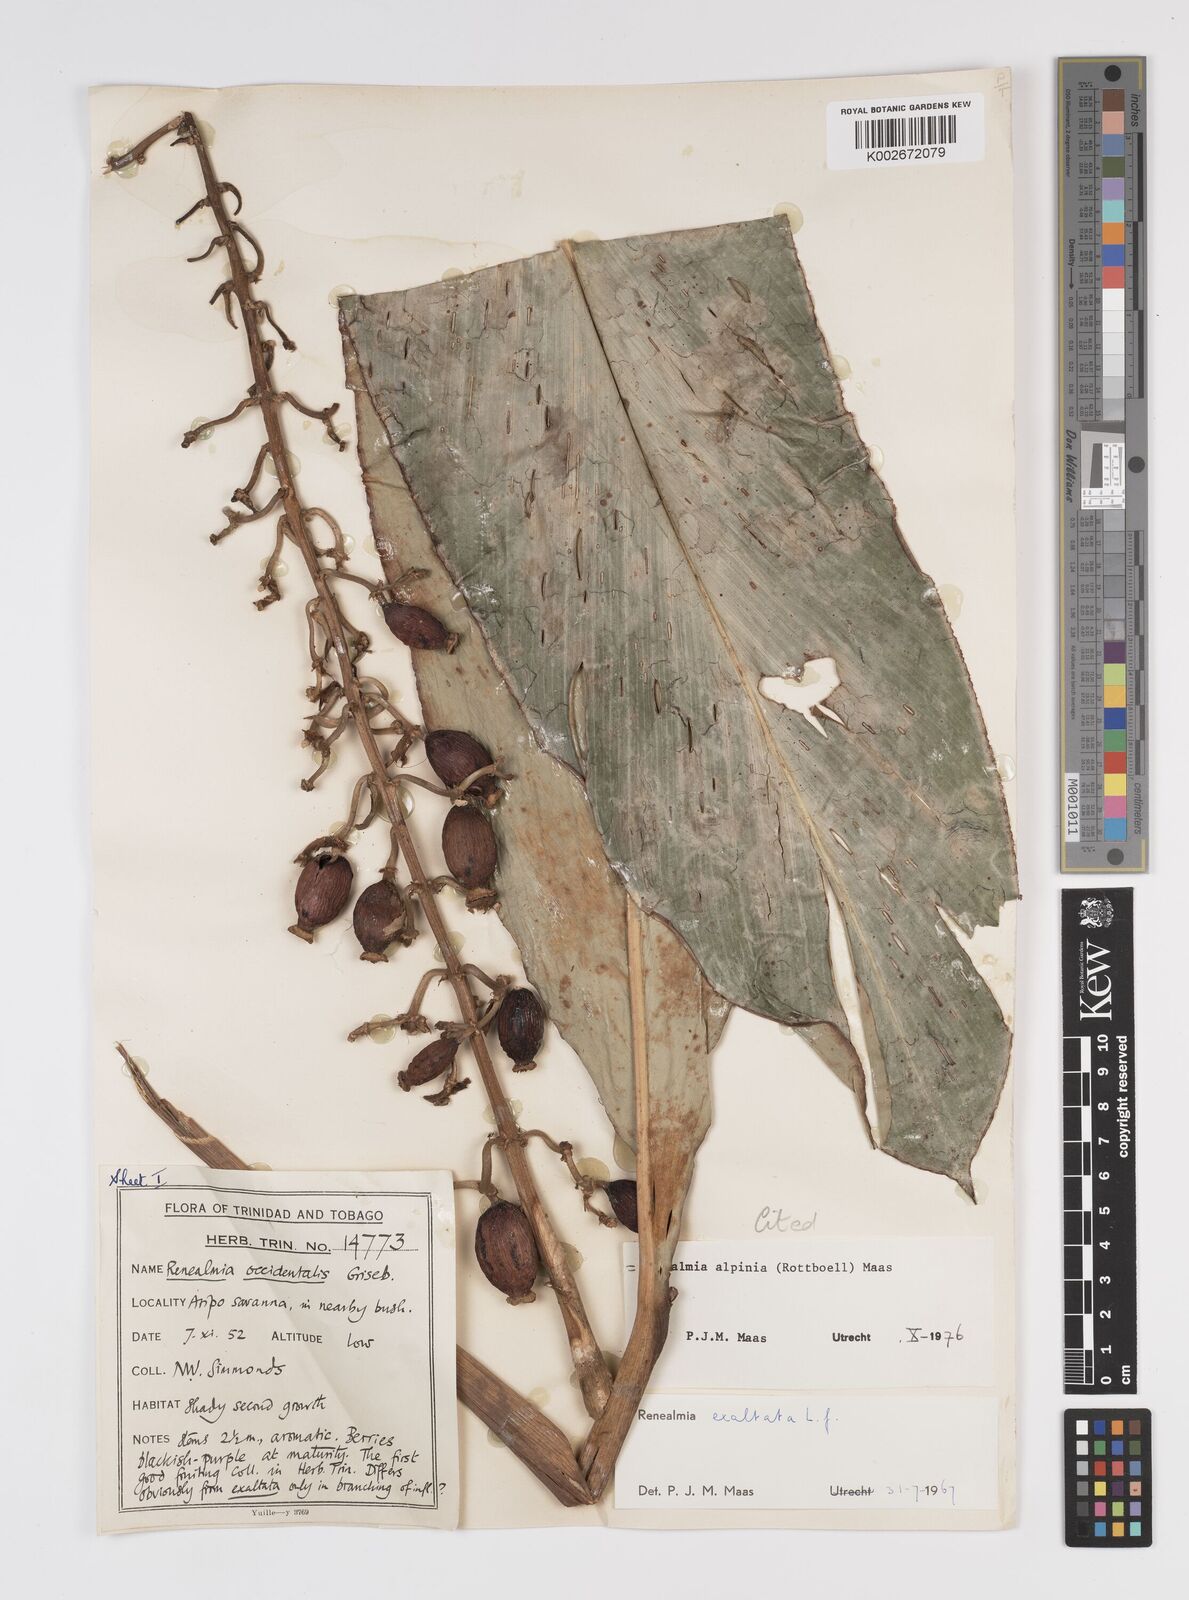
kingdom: Plantae
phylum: Tracheophyta
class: Liliopsida
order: Zingiberales
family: Zingiberaceae
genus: Renealmia
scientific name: Renealmia alpinia
